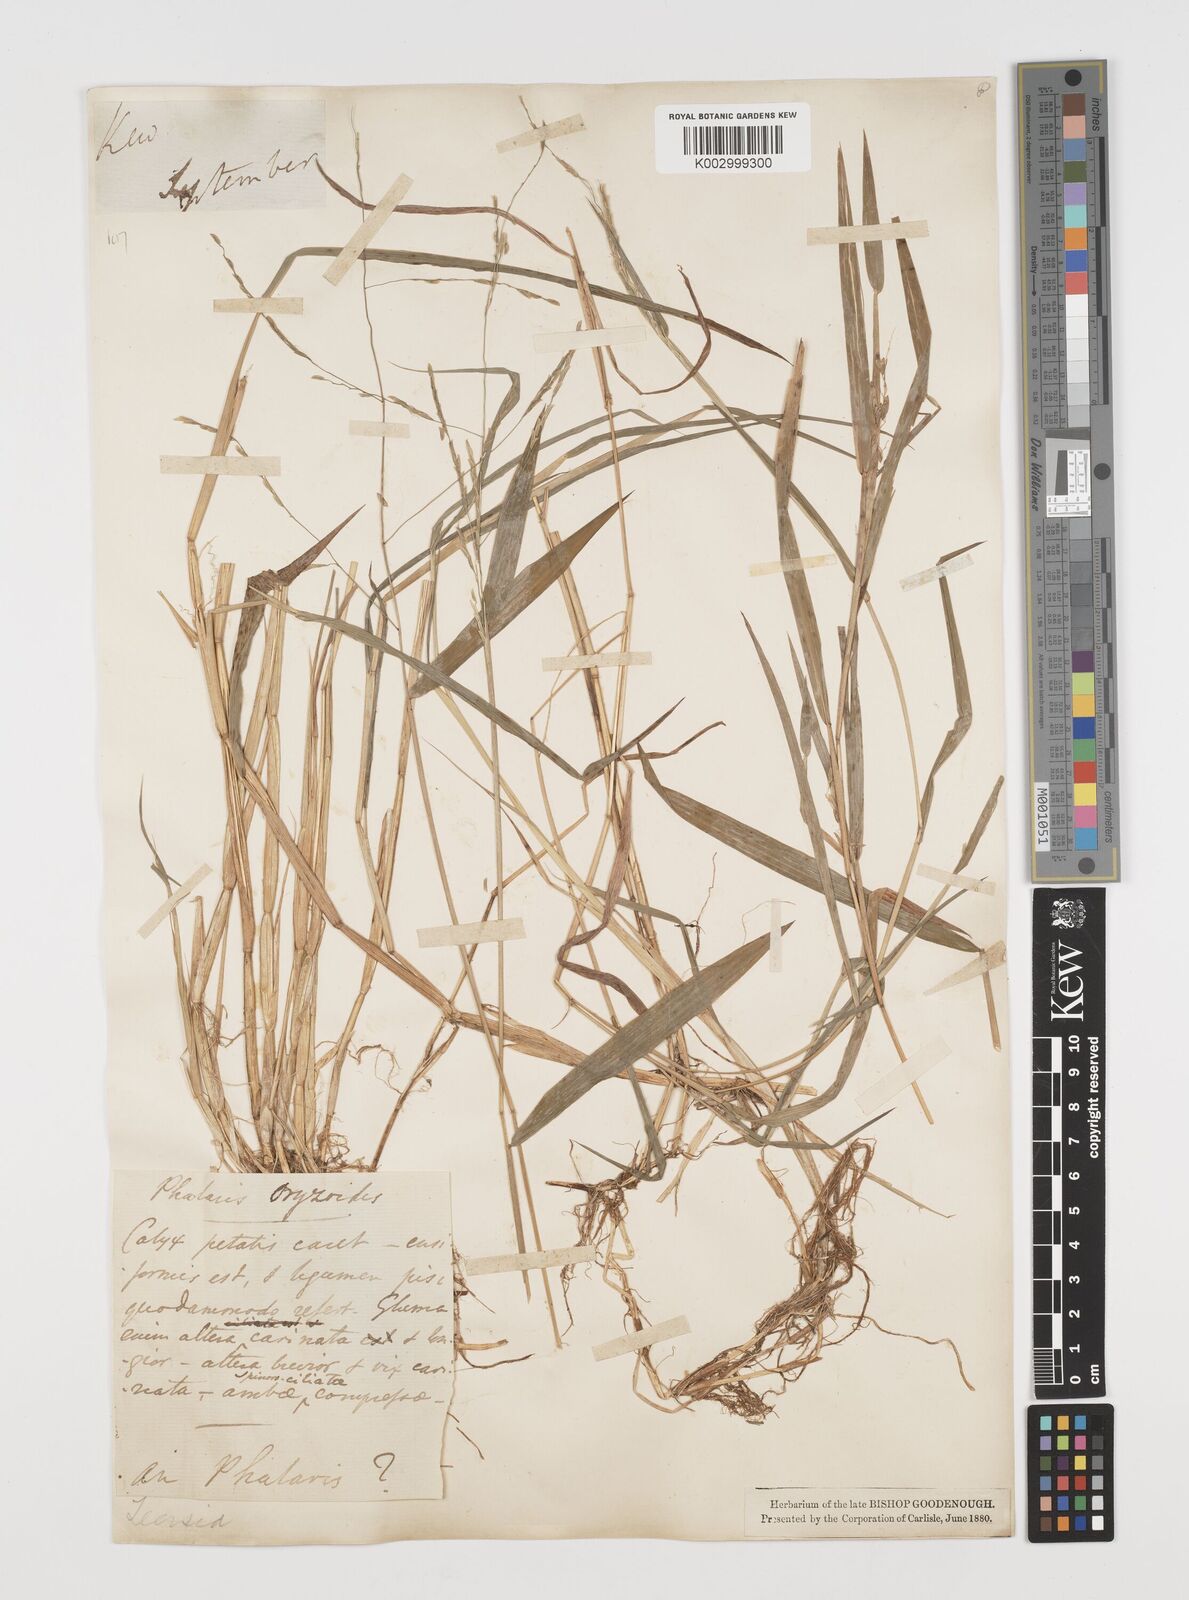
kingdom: Plantae
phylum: Tracheophyta
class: Liliopsida
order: Poales
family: Poaceae
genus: Leersia
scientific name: Leersia oryzoides
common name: Cut-grass
